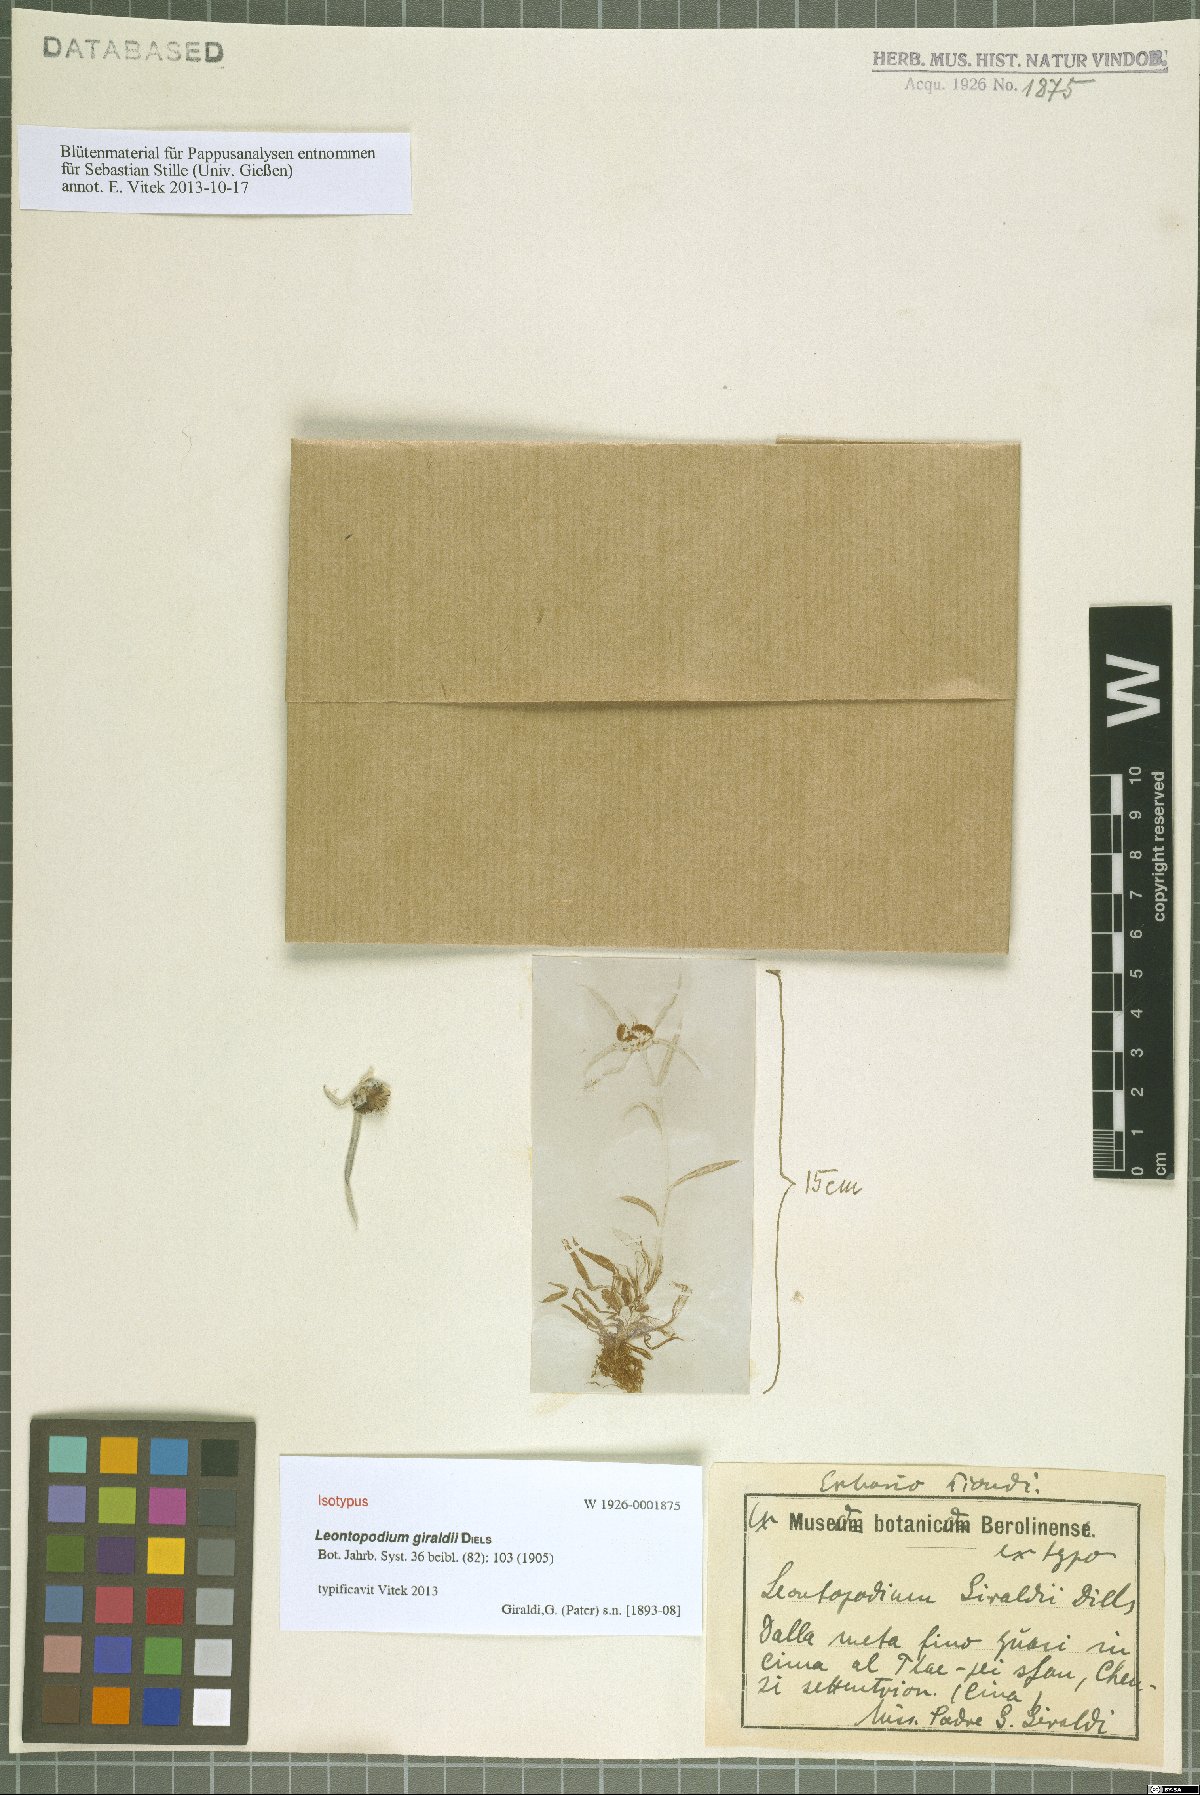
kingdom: Plantae
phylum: Tracheophyta
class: Magnoliopsida
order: Asterales
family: Asteraceae
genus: Leontopodium
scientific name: Leontopodium giraldii
